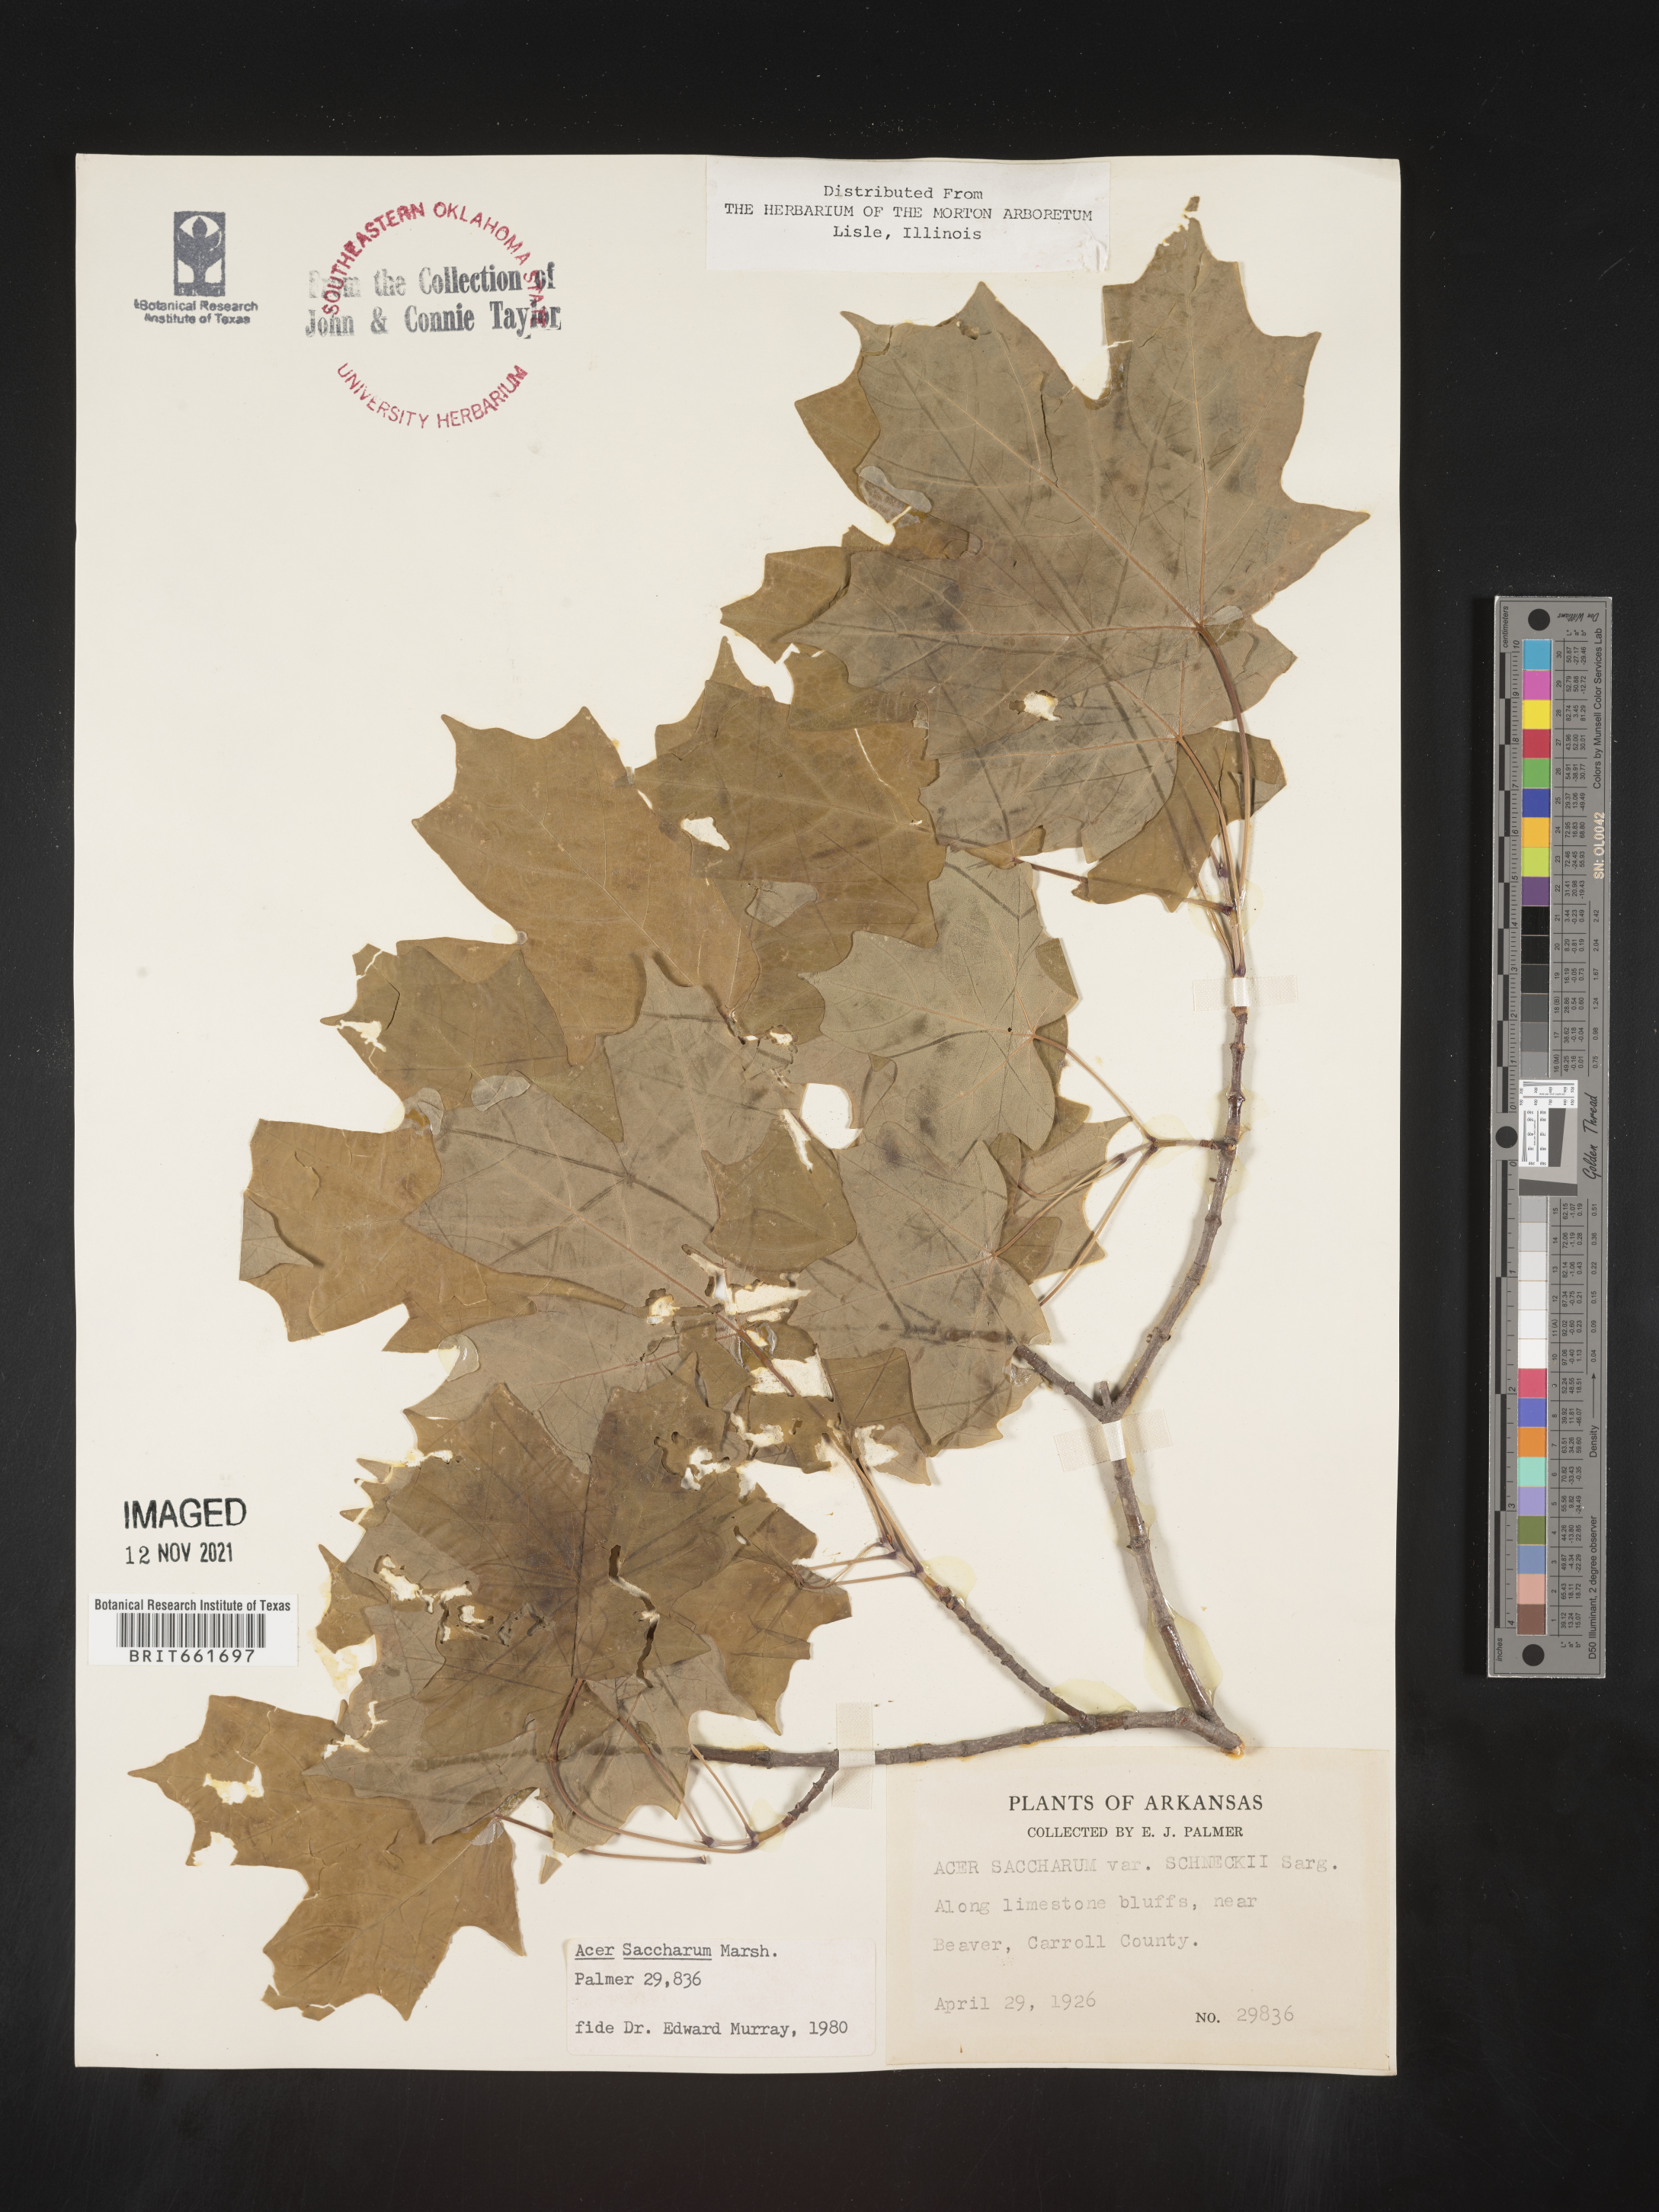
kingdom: Plantae
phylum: Tracheophyta
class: Magnoliopsida
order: Sapindales
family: Sapindaceae
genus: Acer
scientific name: Acer saccharum
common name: Sugar maple
